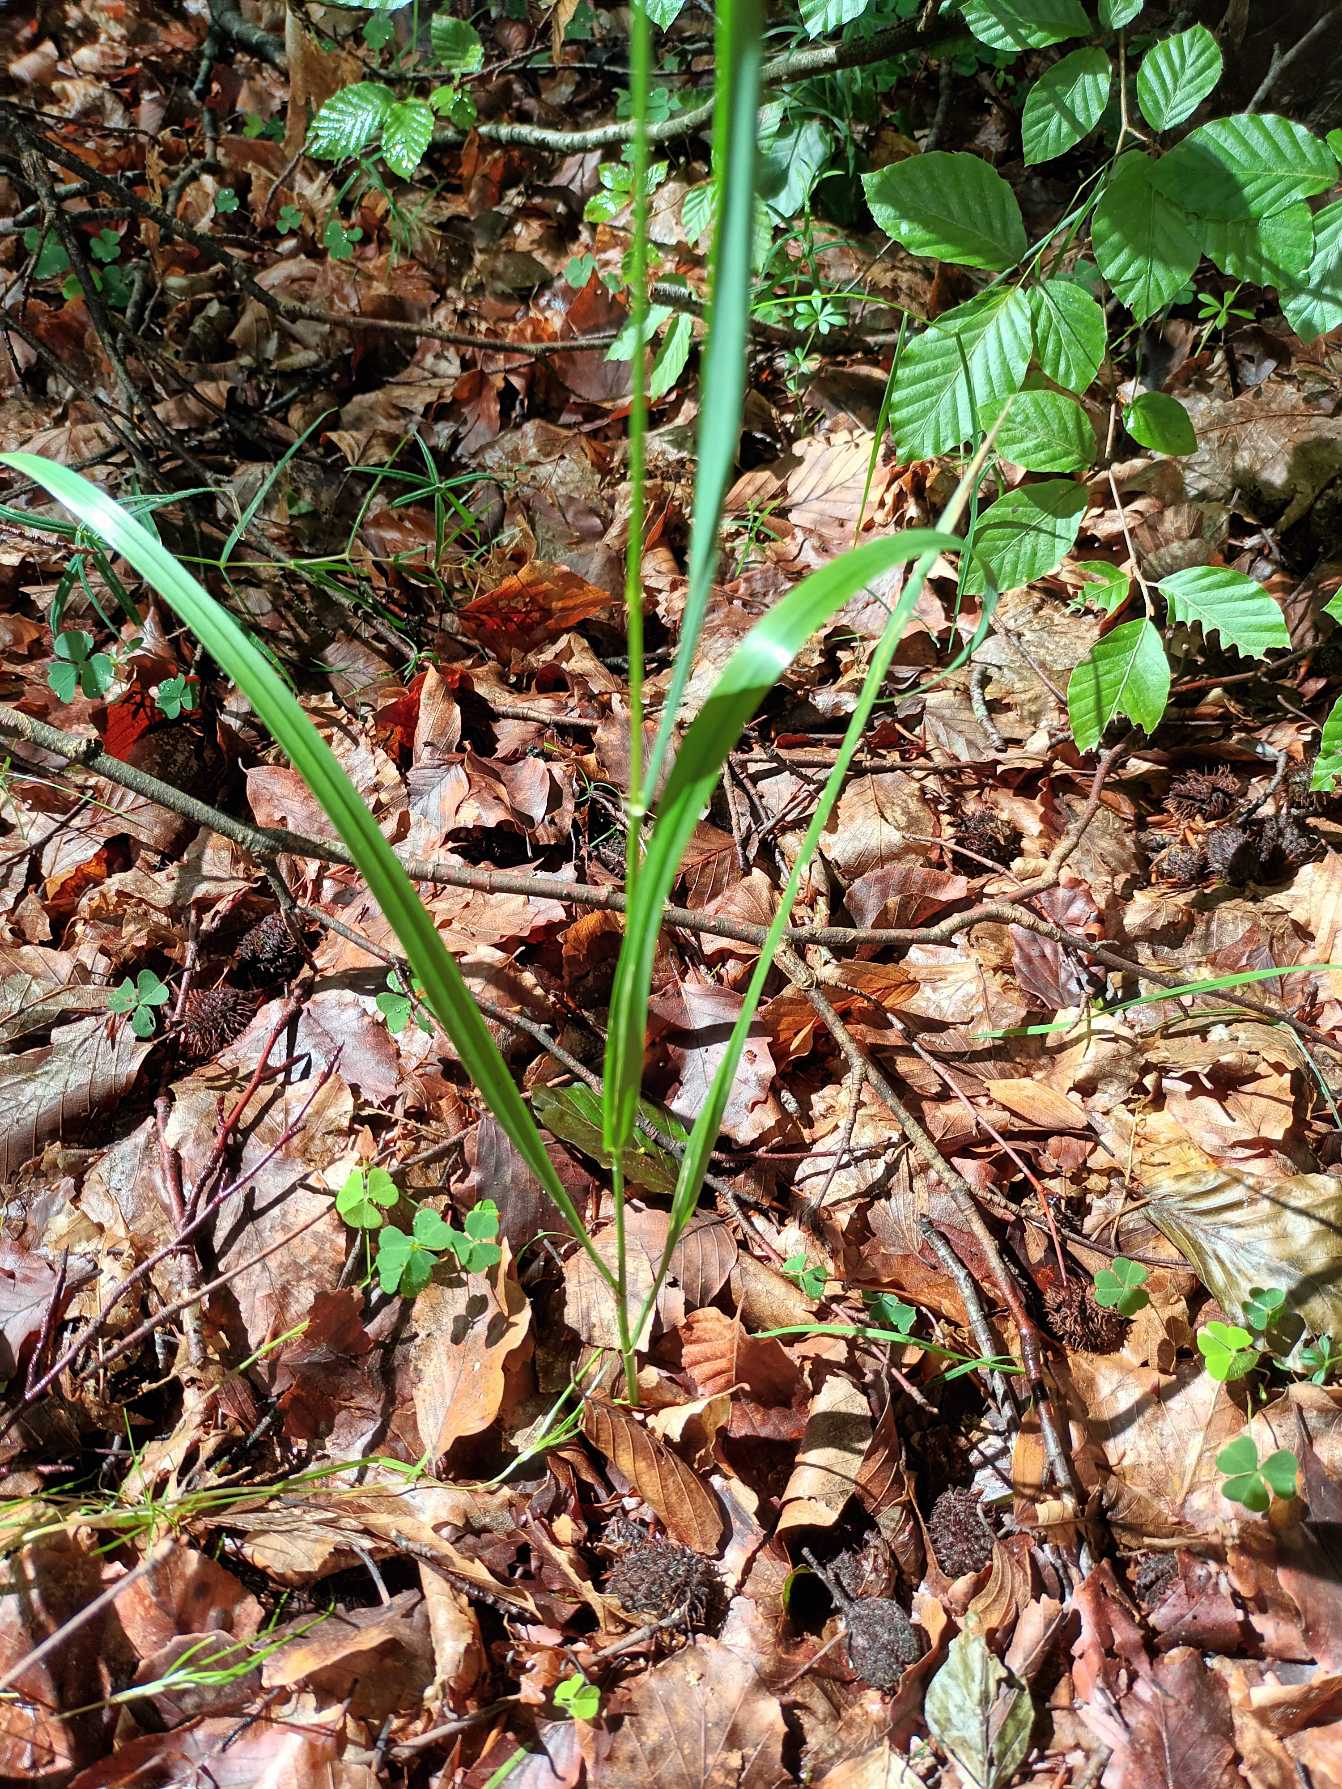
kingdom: Plantae
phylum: Tracheophyta
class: Liliopsida
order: Poales
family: Poaceae
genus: Lolium
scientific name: Lolium giganteum
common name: Kæmpe-svingel
